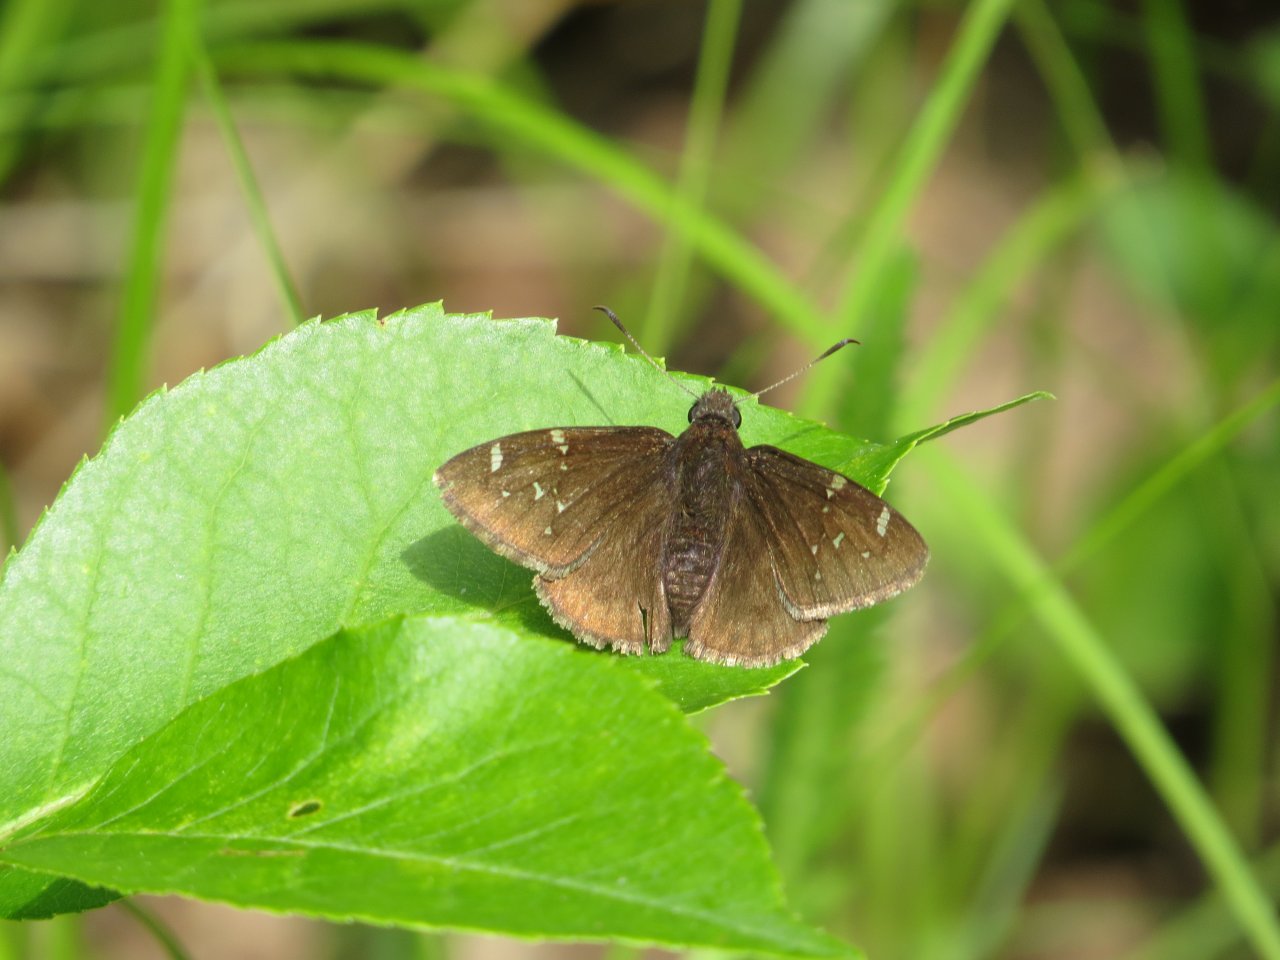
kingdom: Animalia
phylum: Arthropoda
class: Insecta
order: Lepidoptera
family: Hesperiidae
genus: Autochton
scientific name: Autochton
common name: Northern Cloudywing
